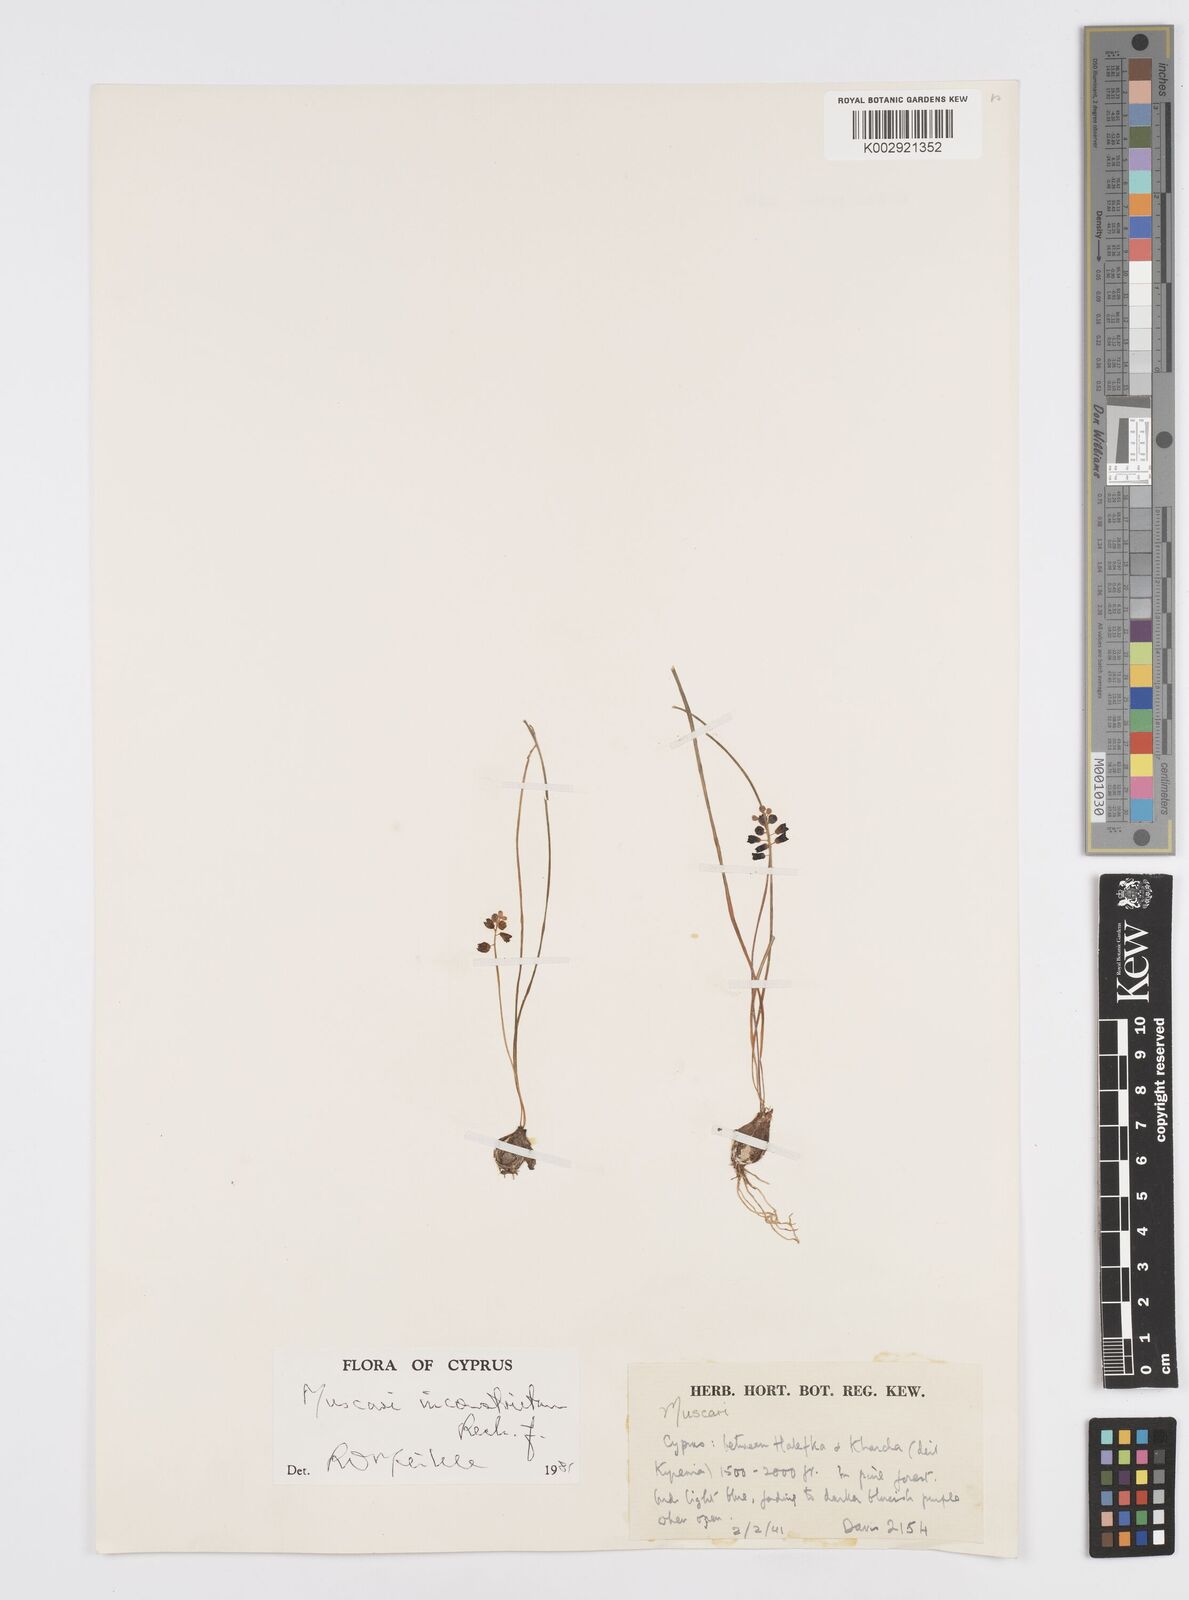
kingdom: Plantae
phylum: Tracheophyta
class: Liliopsida
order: Asparagales
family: Asparagaceae
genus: Muscari
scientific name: Muscari inconstrictum
